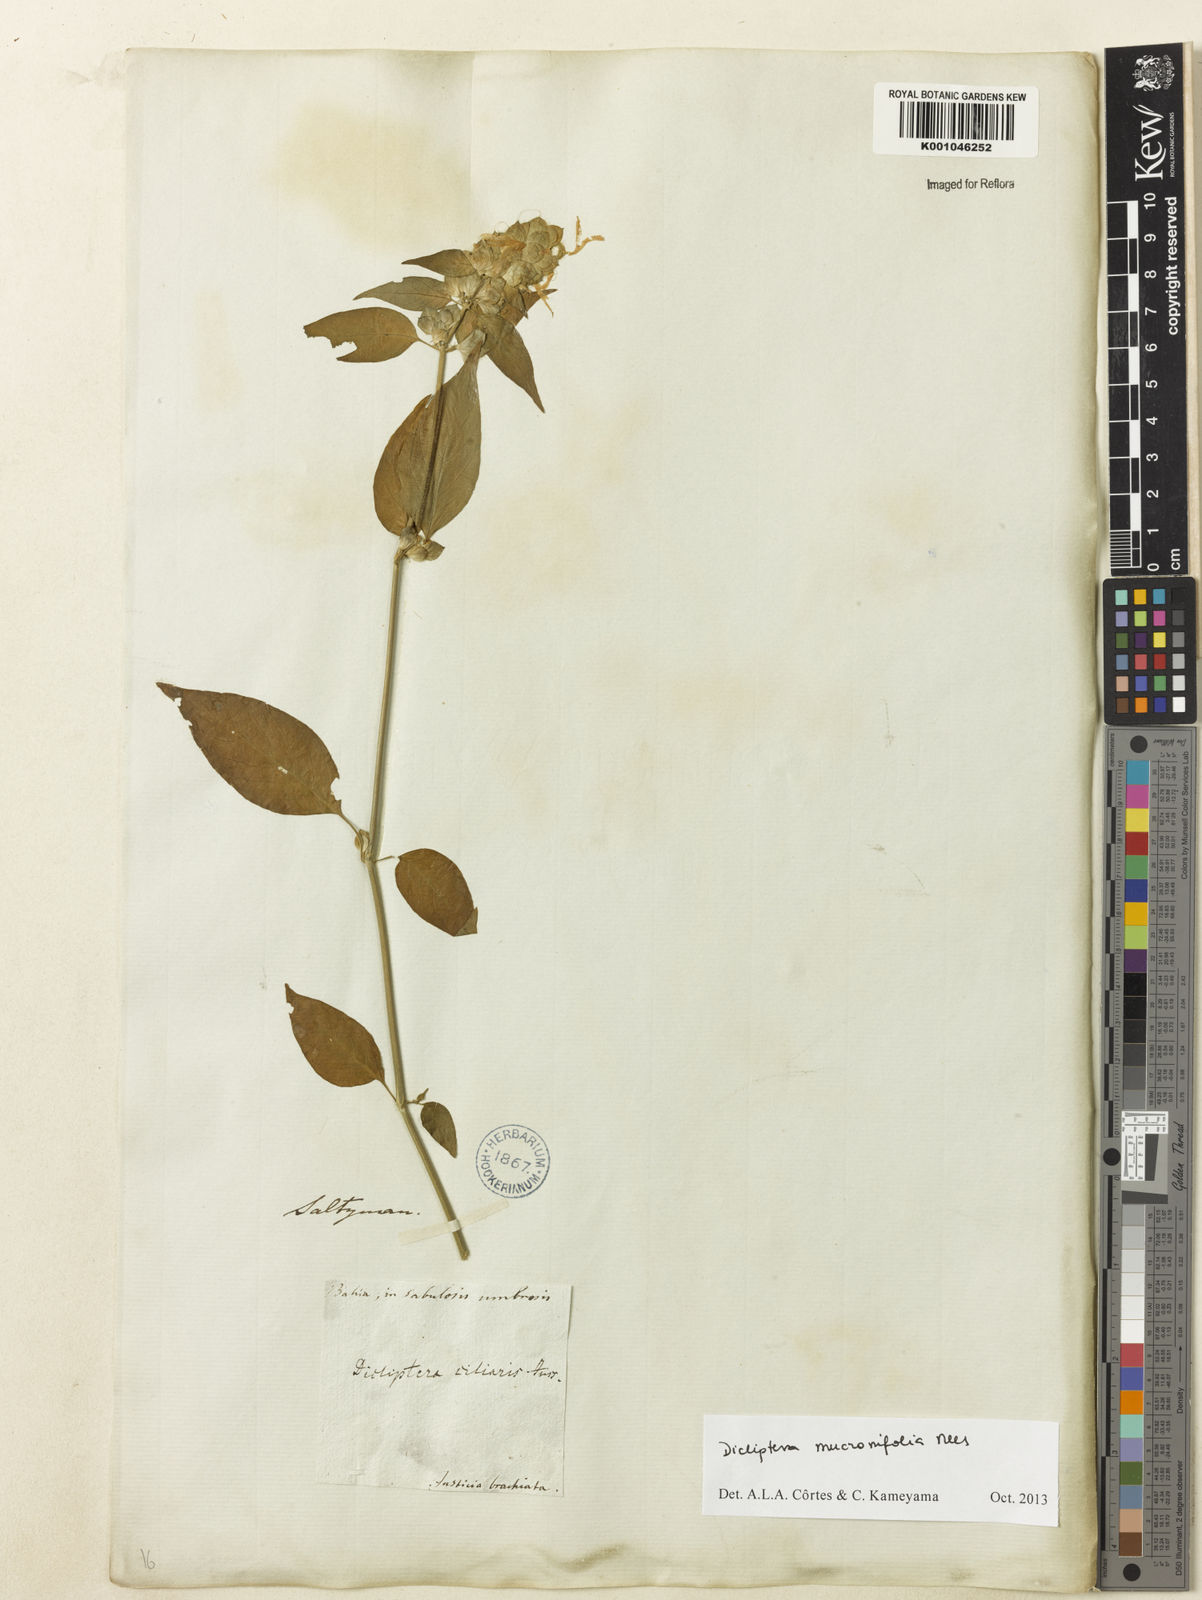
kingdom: Plantae
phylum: Tracheophyta
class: Magnoliopsida
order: Lamiales
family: Acanthaceae
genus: Dicliptera
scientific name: Dicliptera mucronifolia
